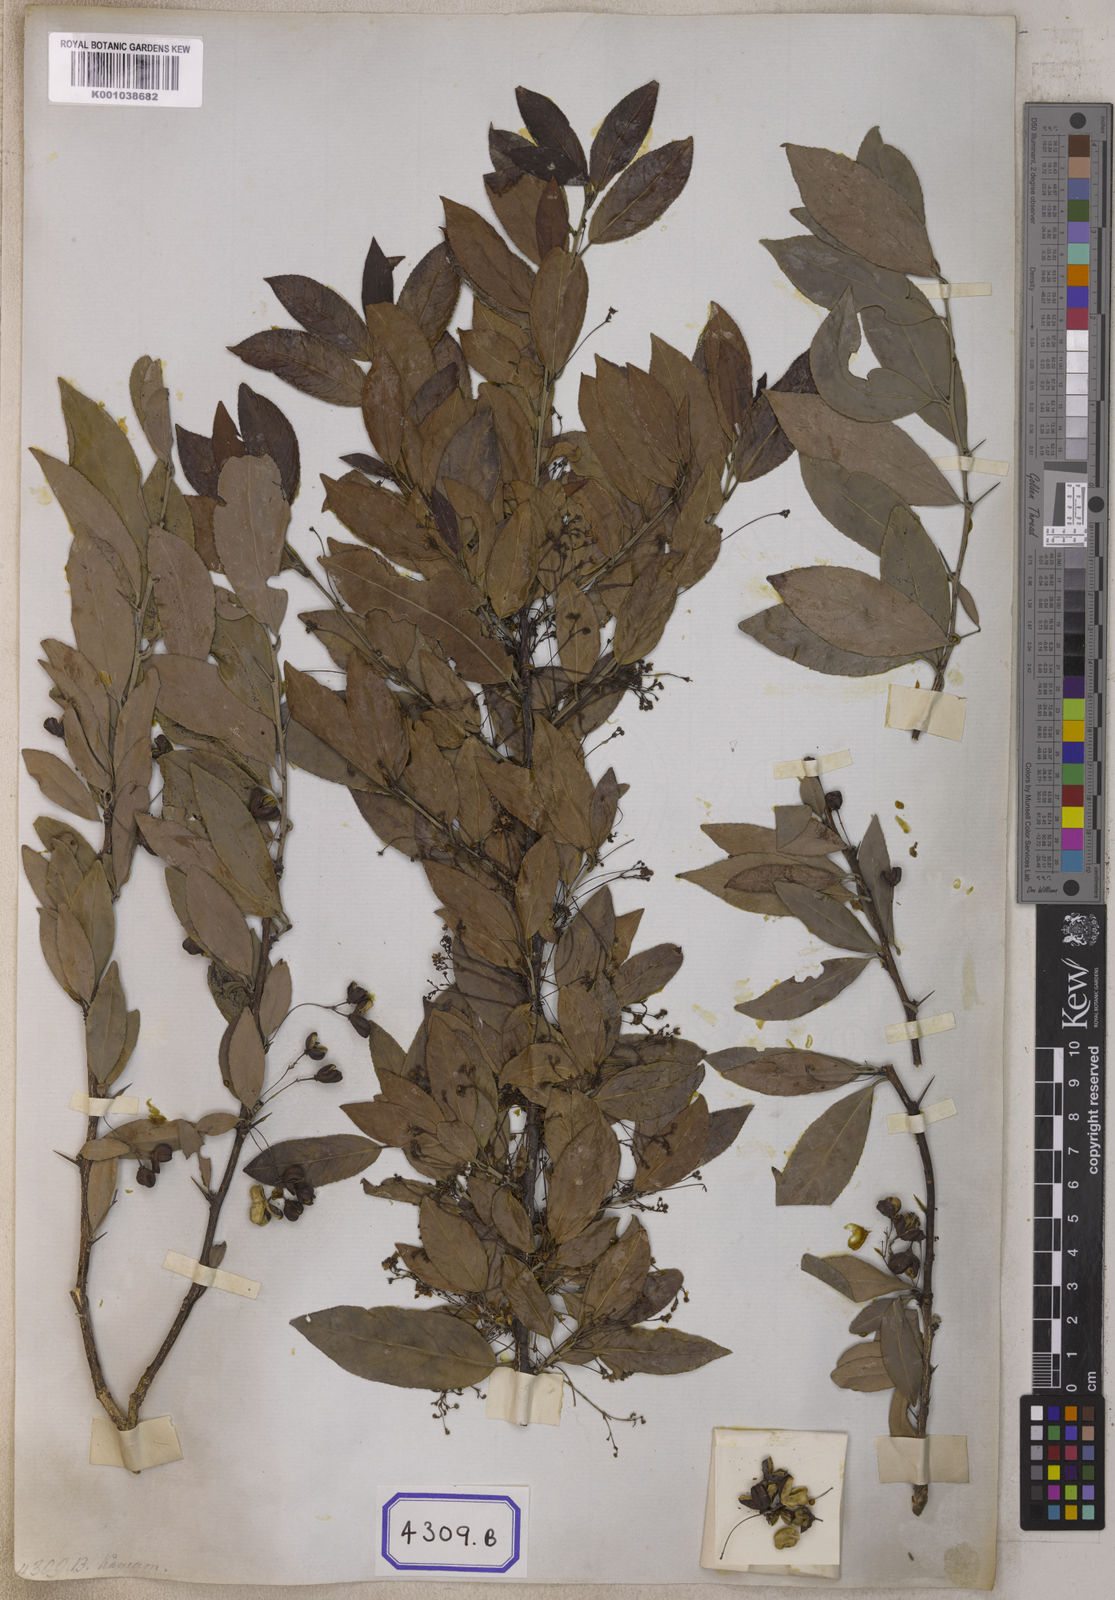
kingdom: Plantae
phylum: Tracheophyta
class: Magnoliopsida
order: Celastrales
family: Celastraceae
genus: Gymnosporia
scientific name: Gymnosporia rufa
